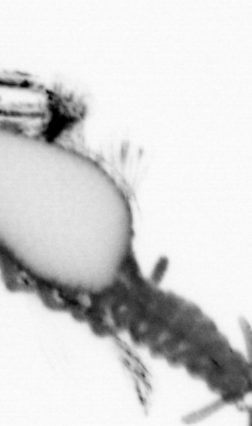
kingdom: Animalia
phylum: Annelida
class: Polychaeta
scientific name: Polychaeta
